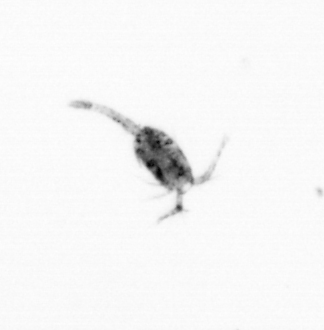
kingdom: Animalia
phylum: Arthropoda
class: Copepoda
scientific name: Copepoda
